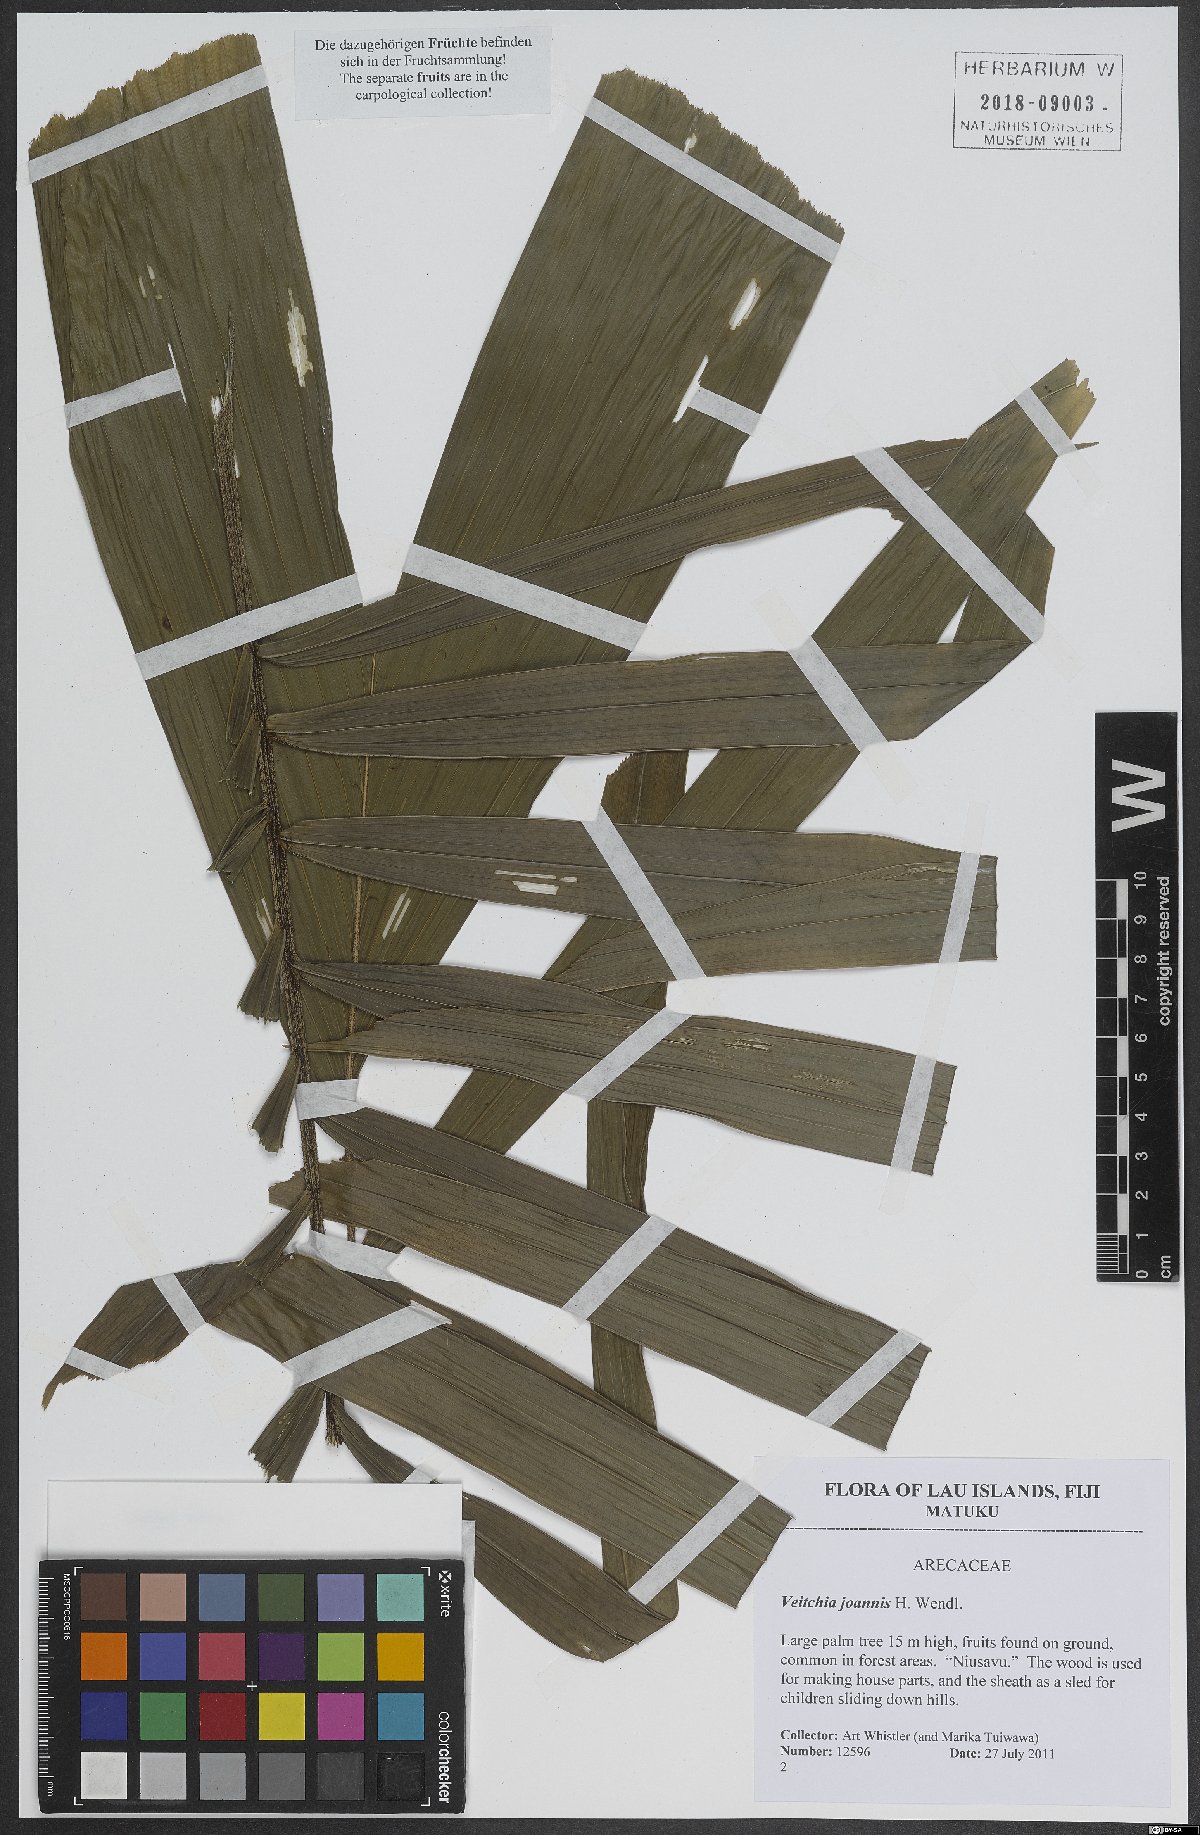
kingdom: Plantae
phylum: Tracheophyta
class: Liliopsida
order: Arecales
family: Arecaceae
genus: Veitchia
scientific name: Veitchia joannis
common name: Joannis palm
